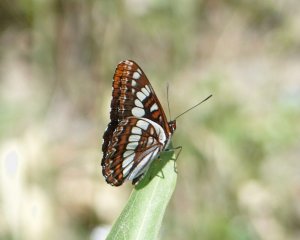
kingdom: Animalia
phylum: Arthropoda
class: Insecta
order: Lepidoptera
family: Nymphalidae
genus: Limenitis
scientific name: Limenitis lorquini
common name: Lorquin's Admiral
